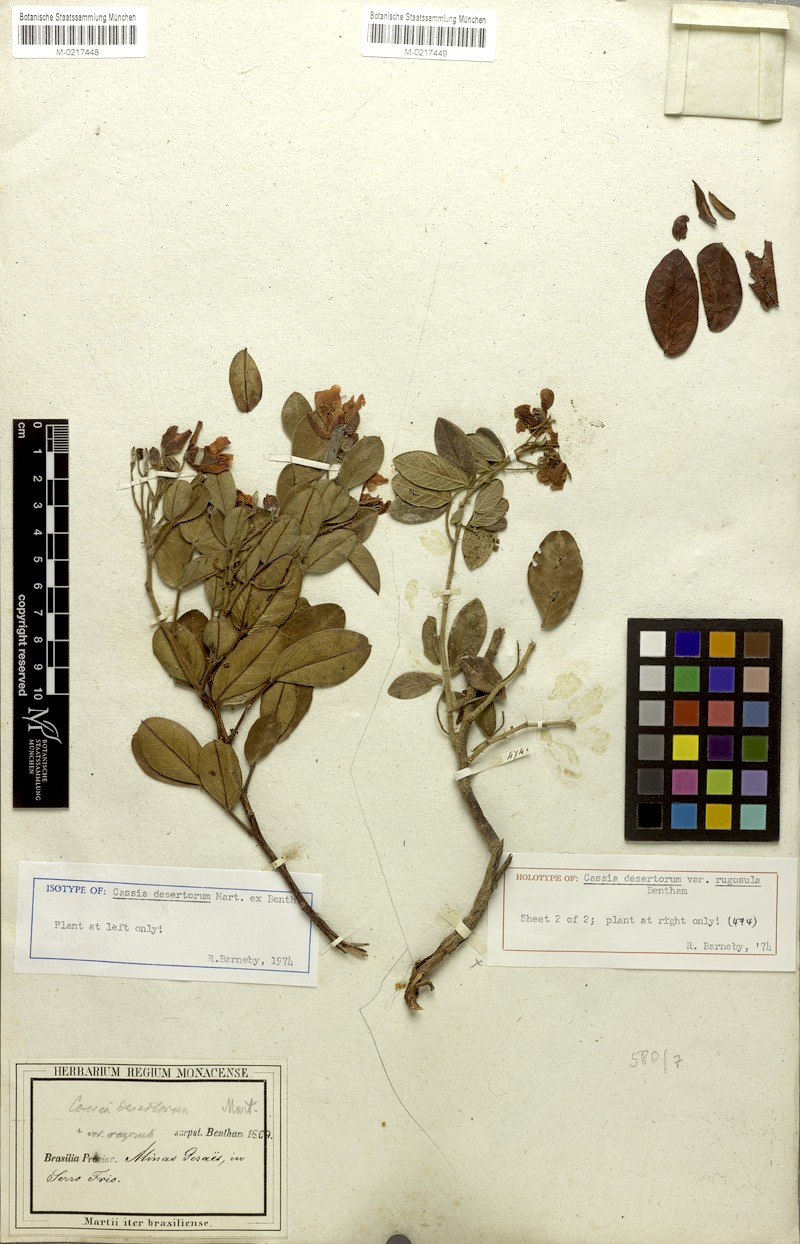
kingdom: Plantae
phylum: Tracheophyta
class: Magnoliopsida
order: Fabales
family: Fabaceae
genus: Chamaecrista
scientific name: Chamaecrista desertorum
